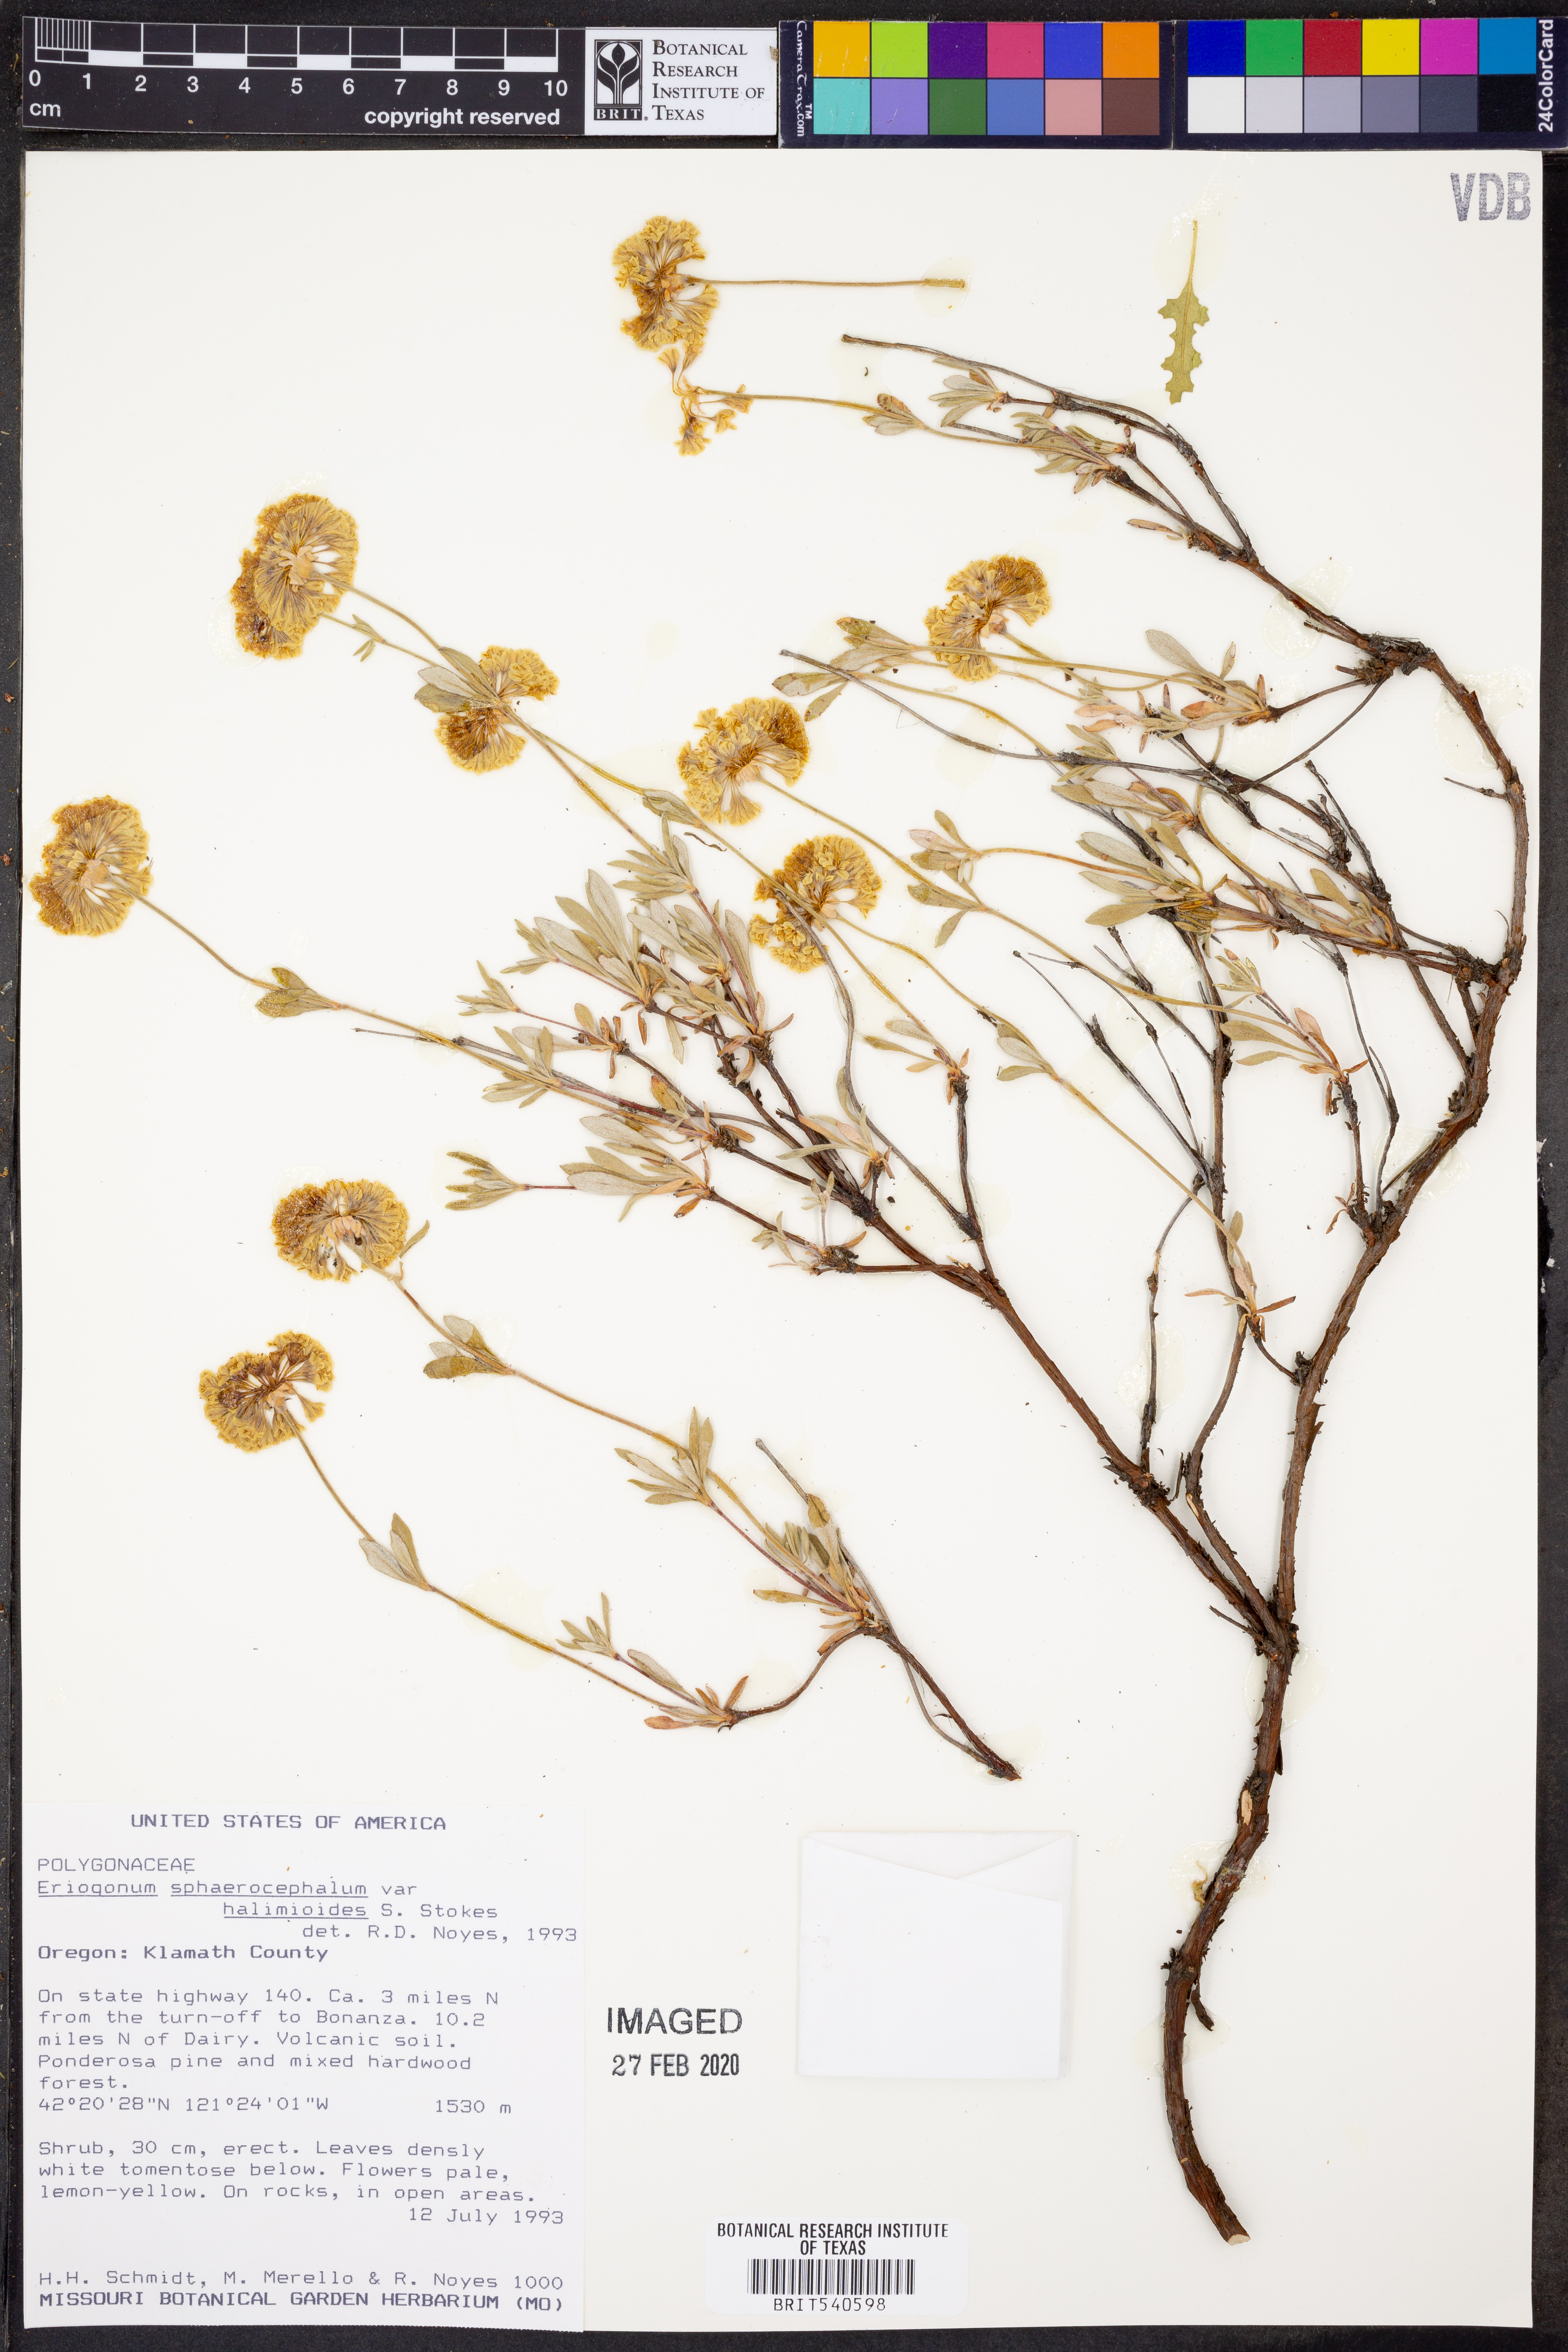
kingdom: Plantae
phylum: Tracheophyta
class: Magnoliopsida
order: Caryophyllales
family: Polygonaceae
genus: Eriogonum
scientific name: Eriogonum sphaerocephalum
